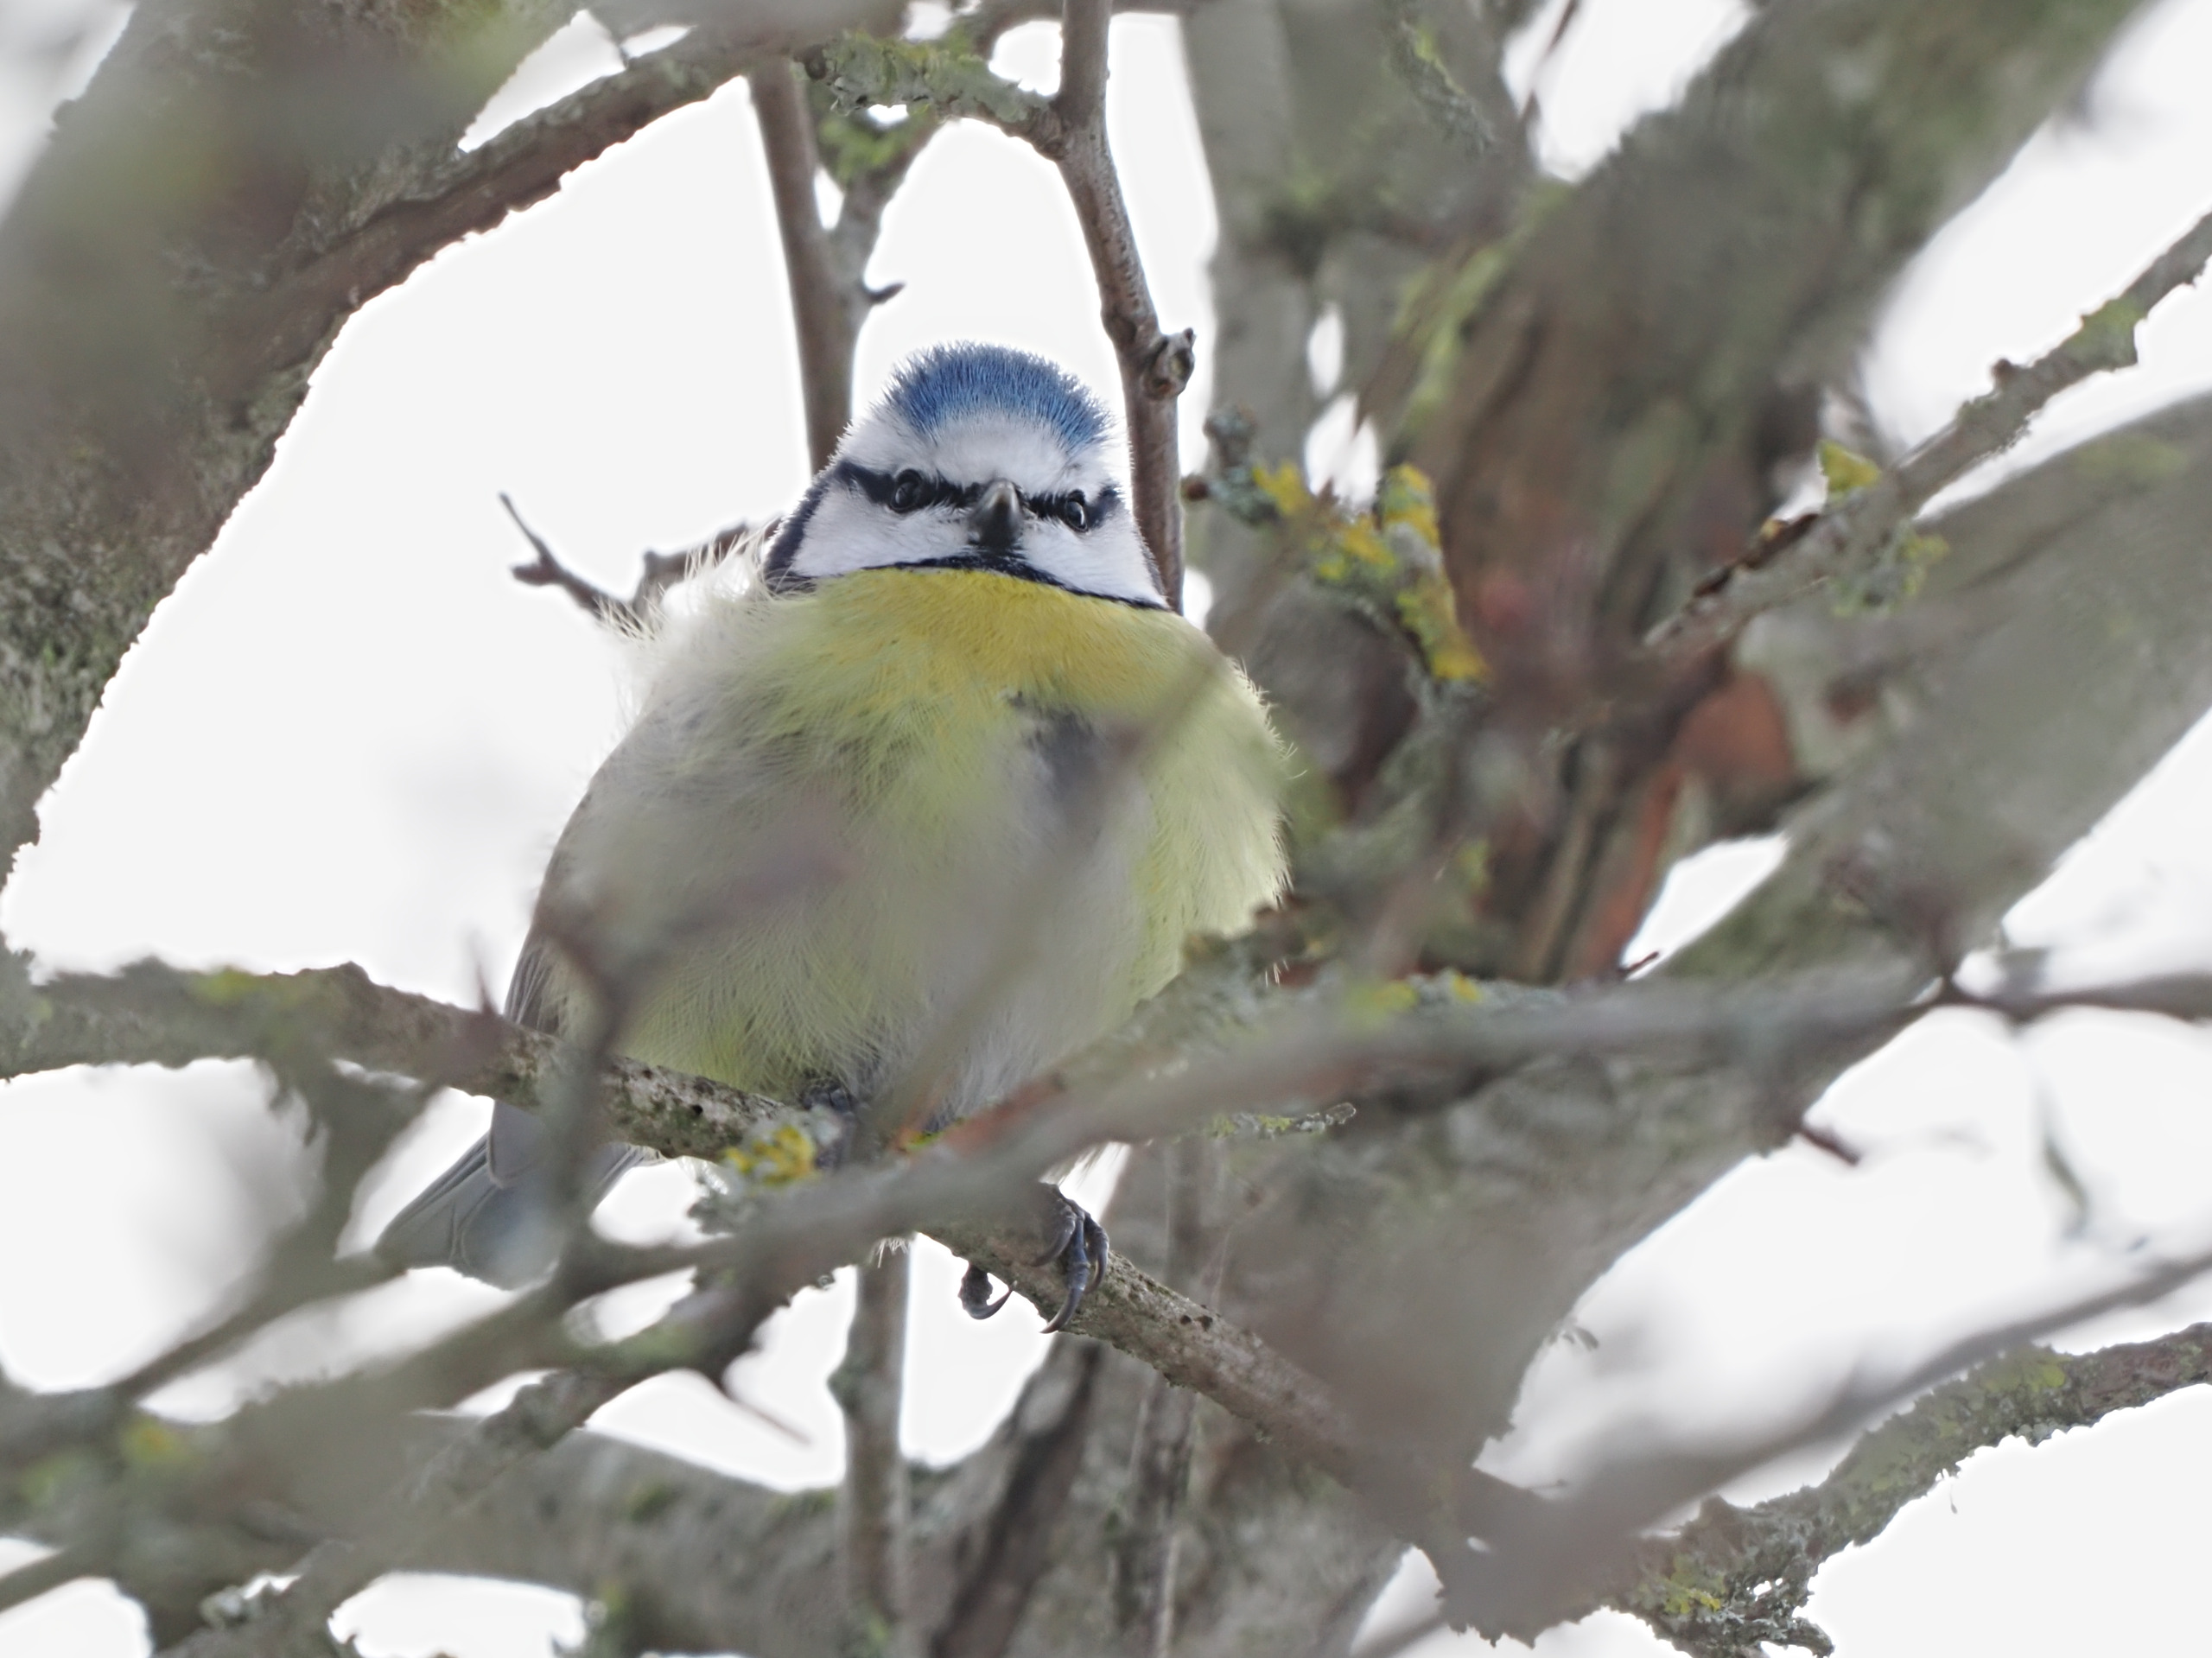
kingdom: Animalia
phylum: Chordata
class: Aves
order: Passeriformes
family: Paridae
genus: Cyanistes
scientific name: Cyanistes caeruleus
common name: Blåmejse
